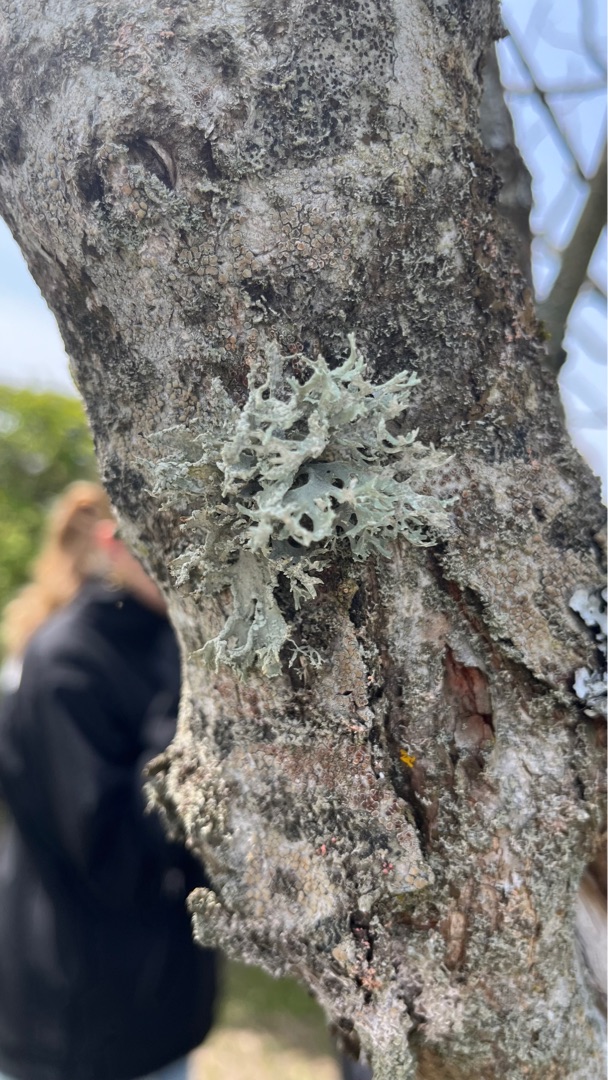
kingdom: Fungi
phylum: Ascomycota
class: Lecanoromycetes
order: Lecanorales
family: Parmeliaceae
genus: Evernia
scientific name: Evernia prunastri
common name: Almindelig slåenlav
